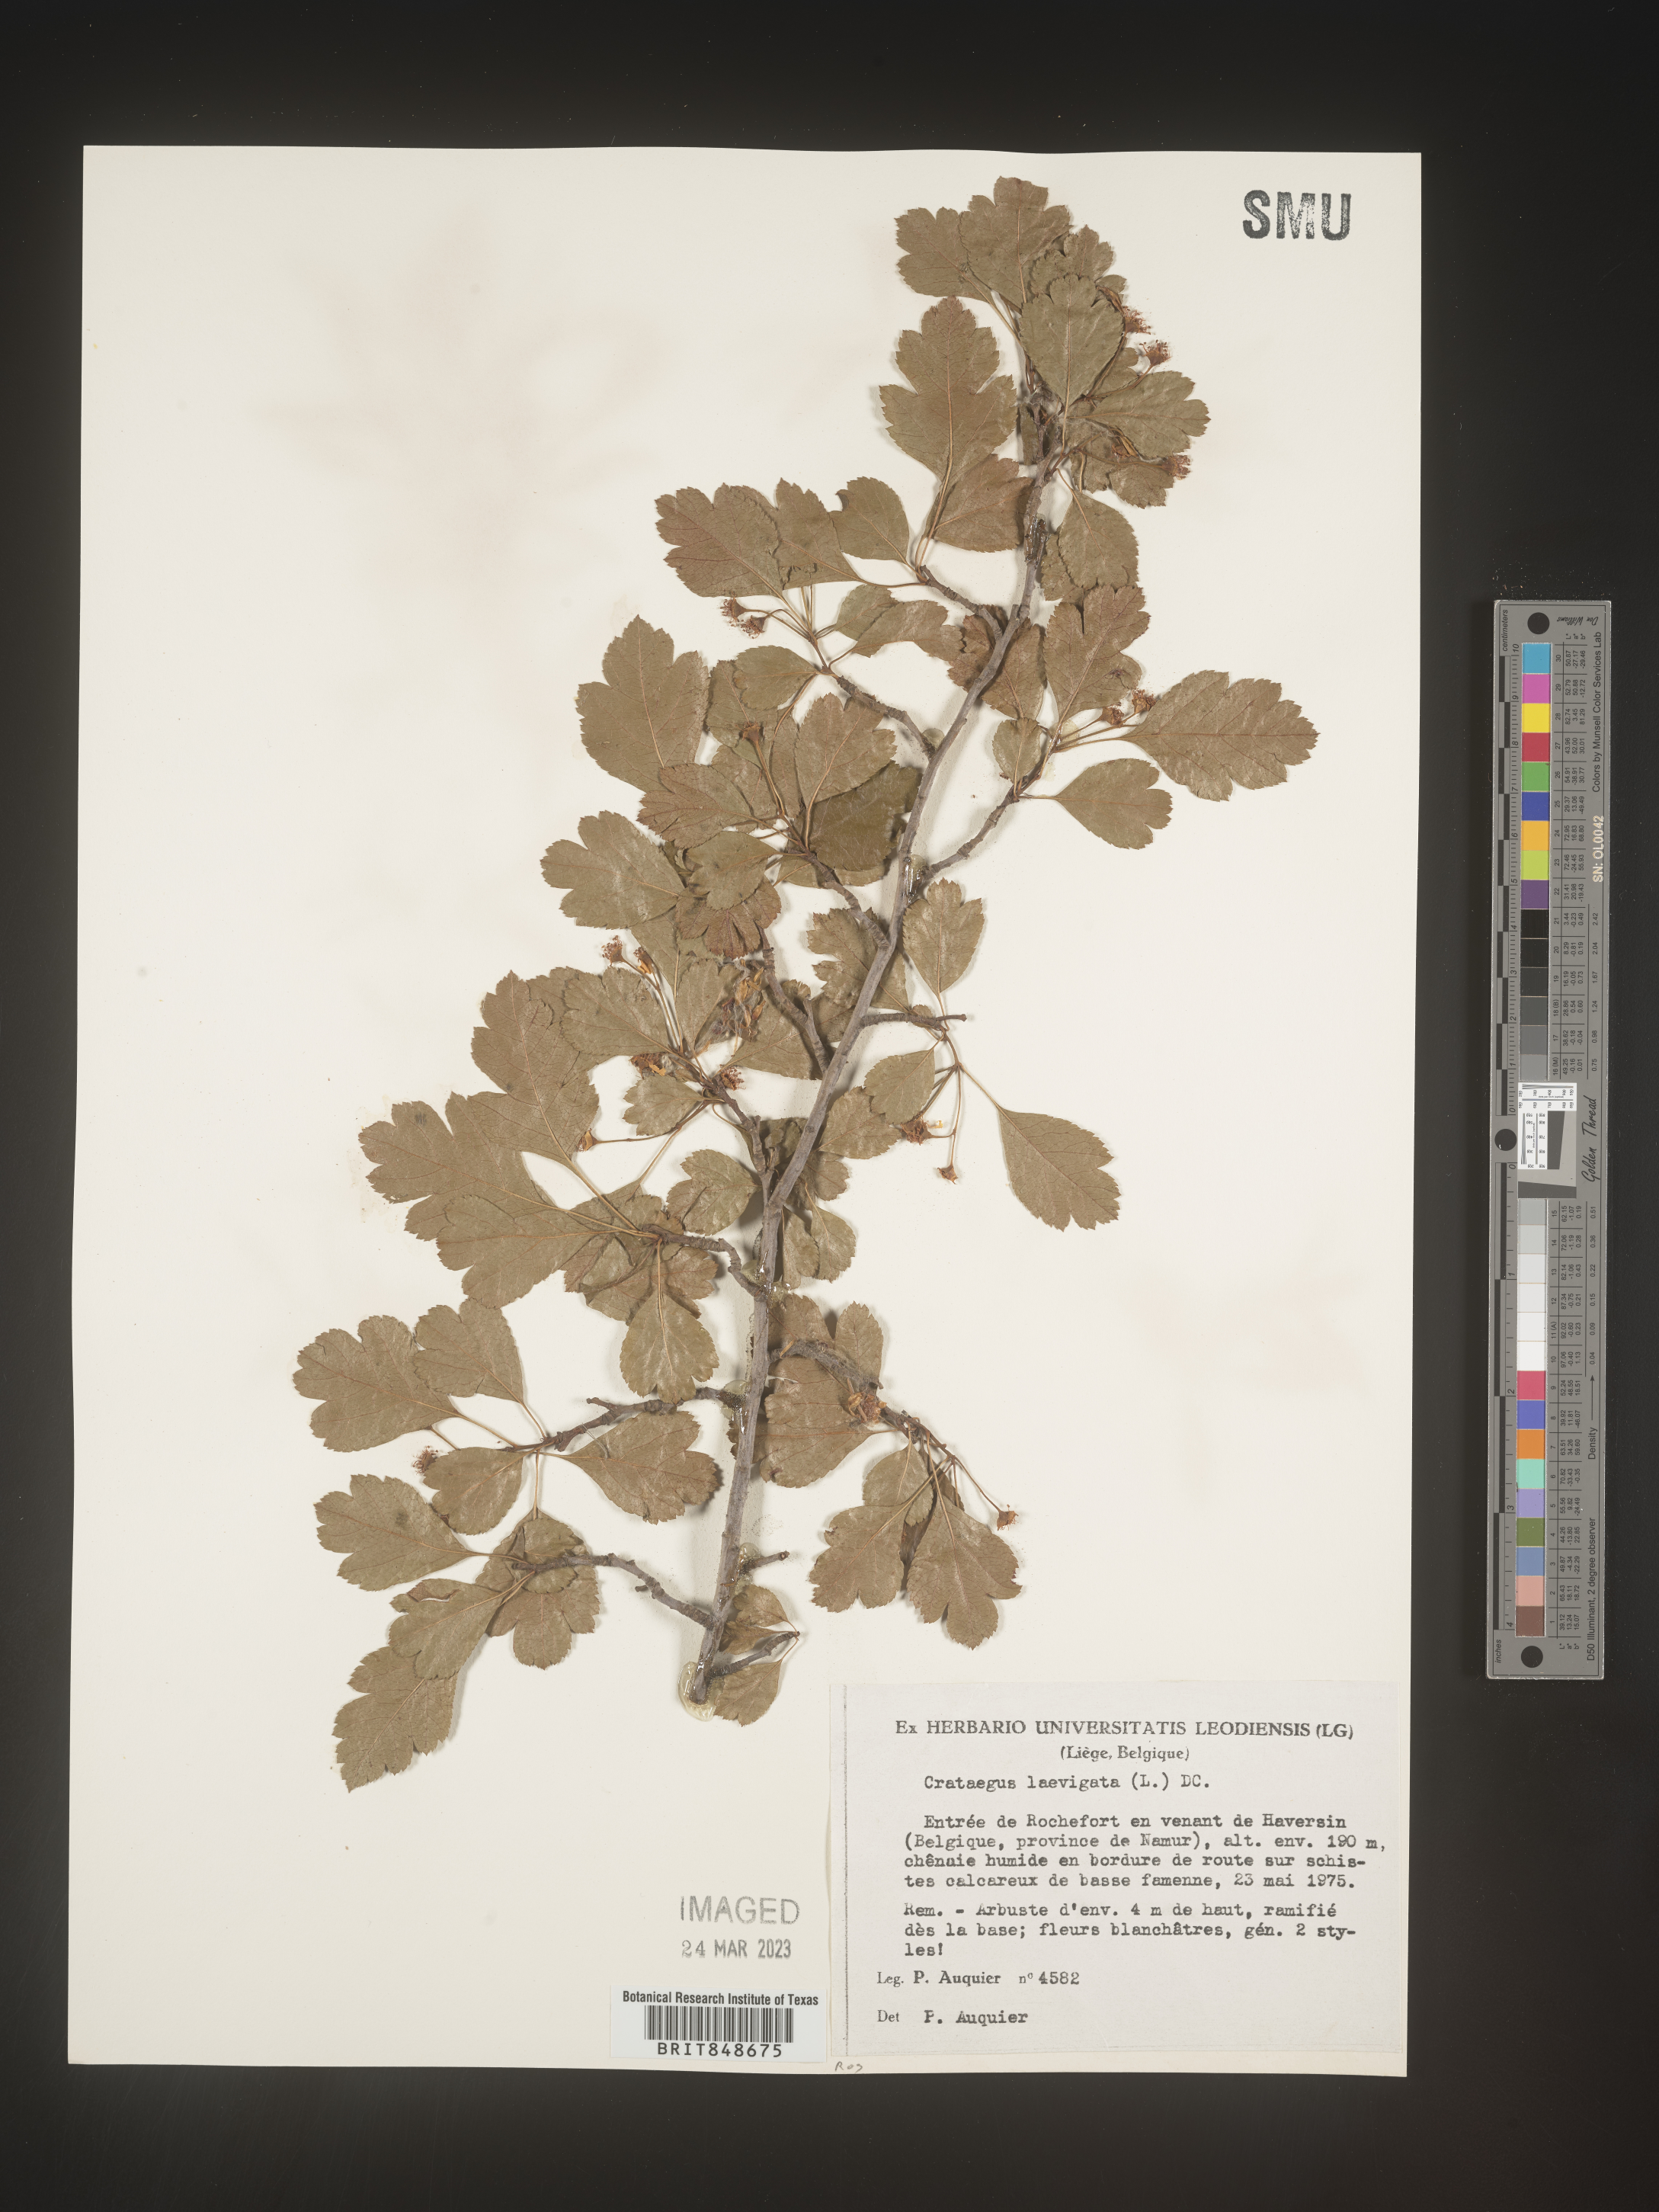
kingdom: Plantae
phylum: Tracheophyta
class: Magnoliopsida
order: Rosales
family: Rosaceae
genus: Crataegus
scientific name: Crataegus
